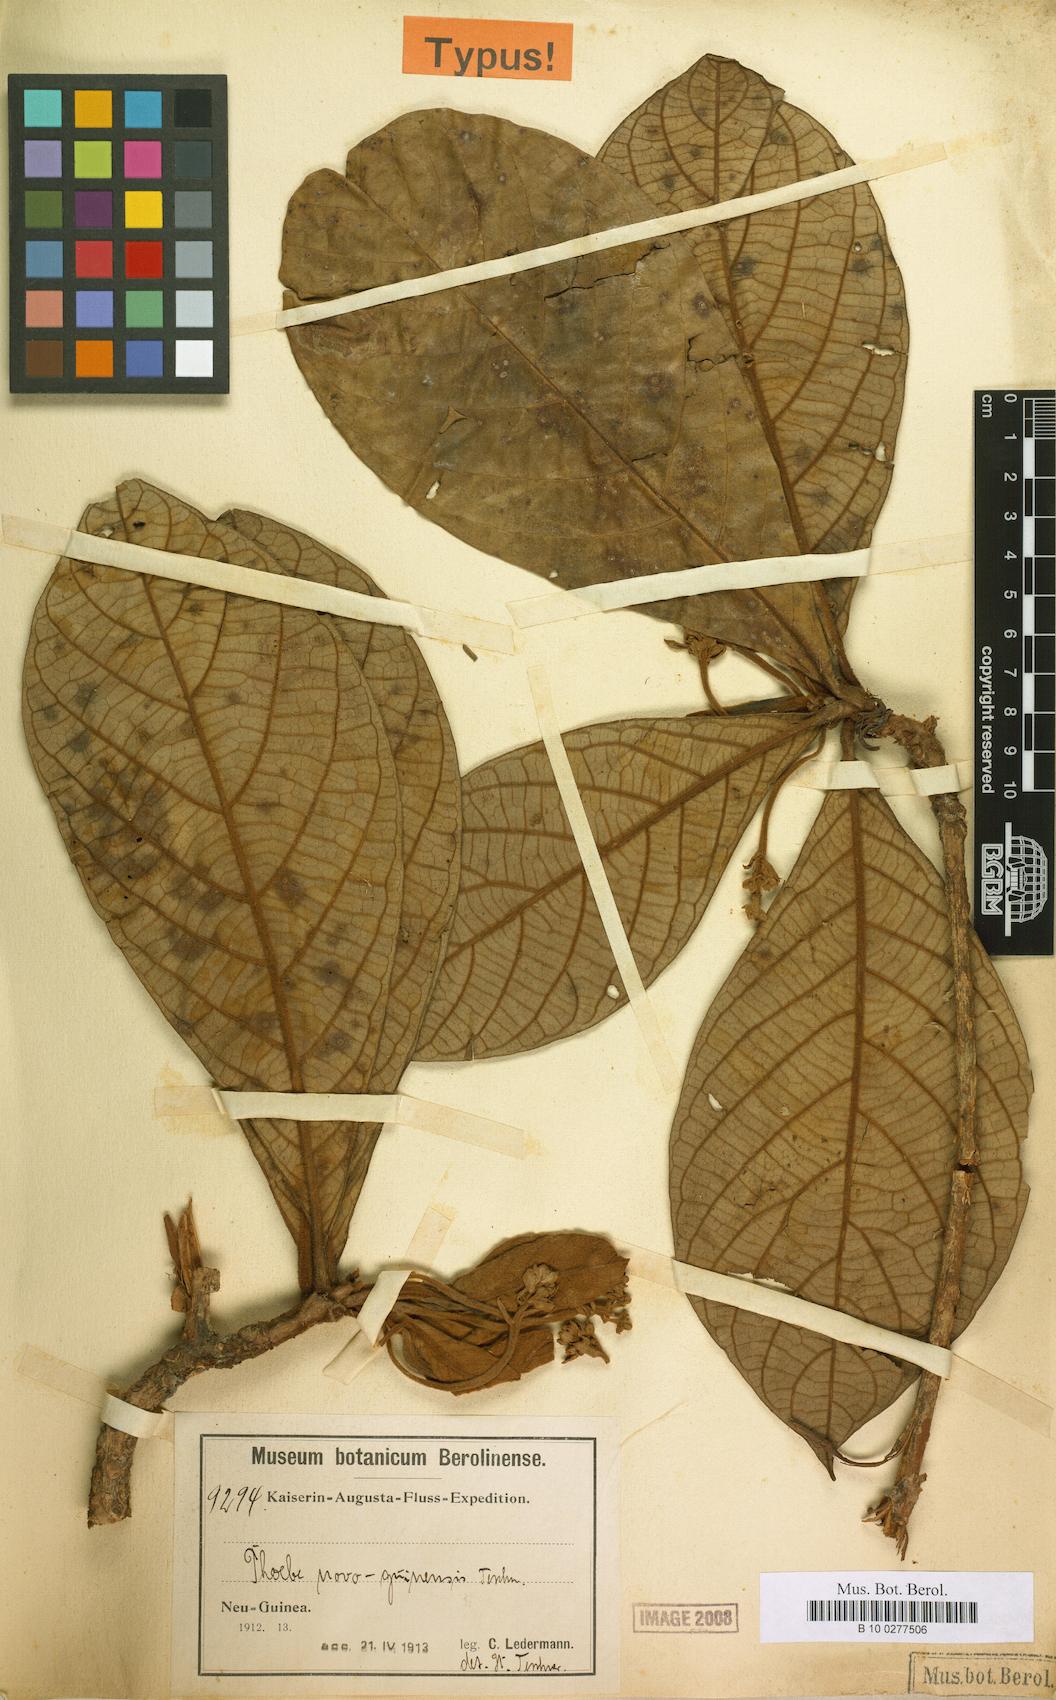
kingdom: Plantae
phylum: Tracheophyta
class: Magnoliopsida
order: Laurales
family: Lauraceae
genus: Phoebe
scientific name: Phoebe forbesii
